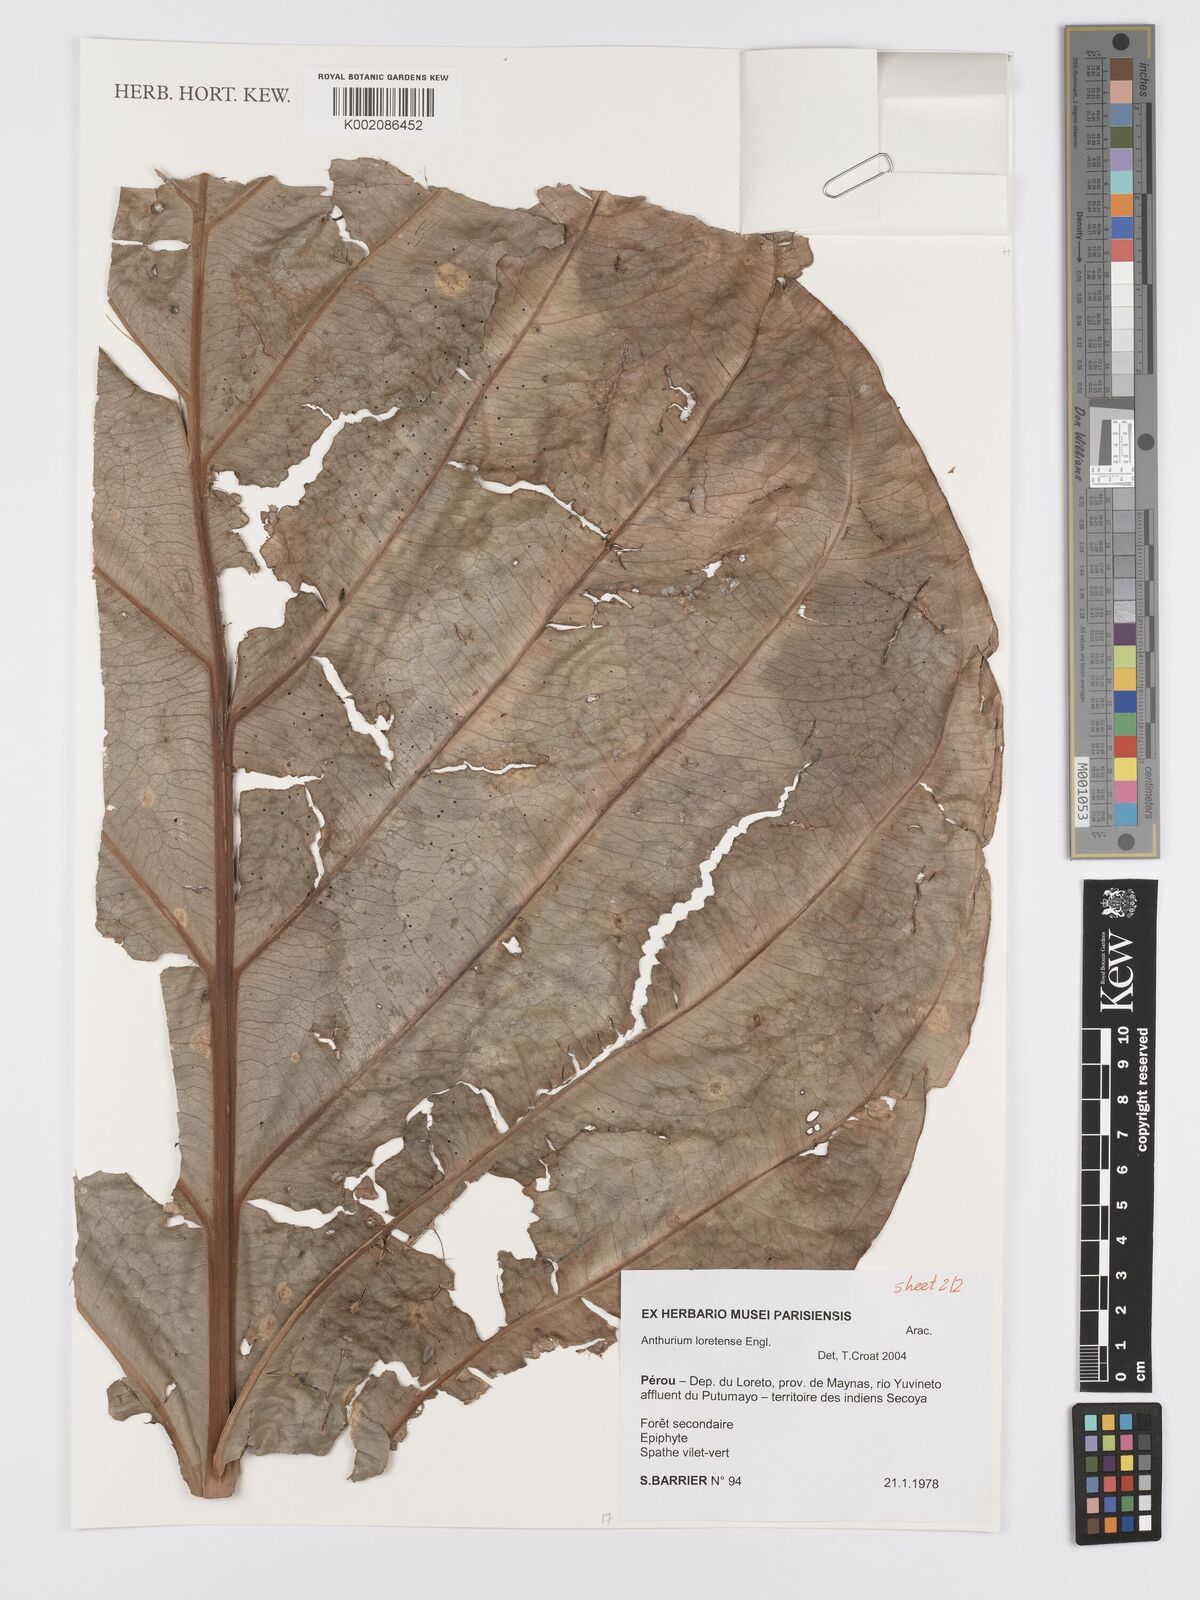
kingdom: Plantae
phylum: Tracheophyta
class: Liliopsida
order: Alismatales
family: Araceae
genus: Anthurium
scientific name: Anthurium loretense
